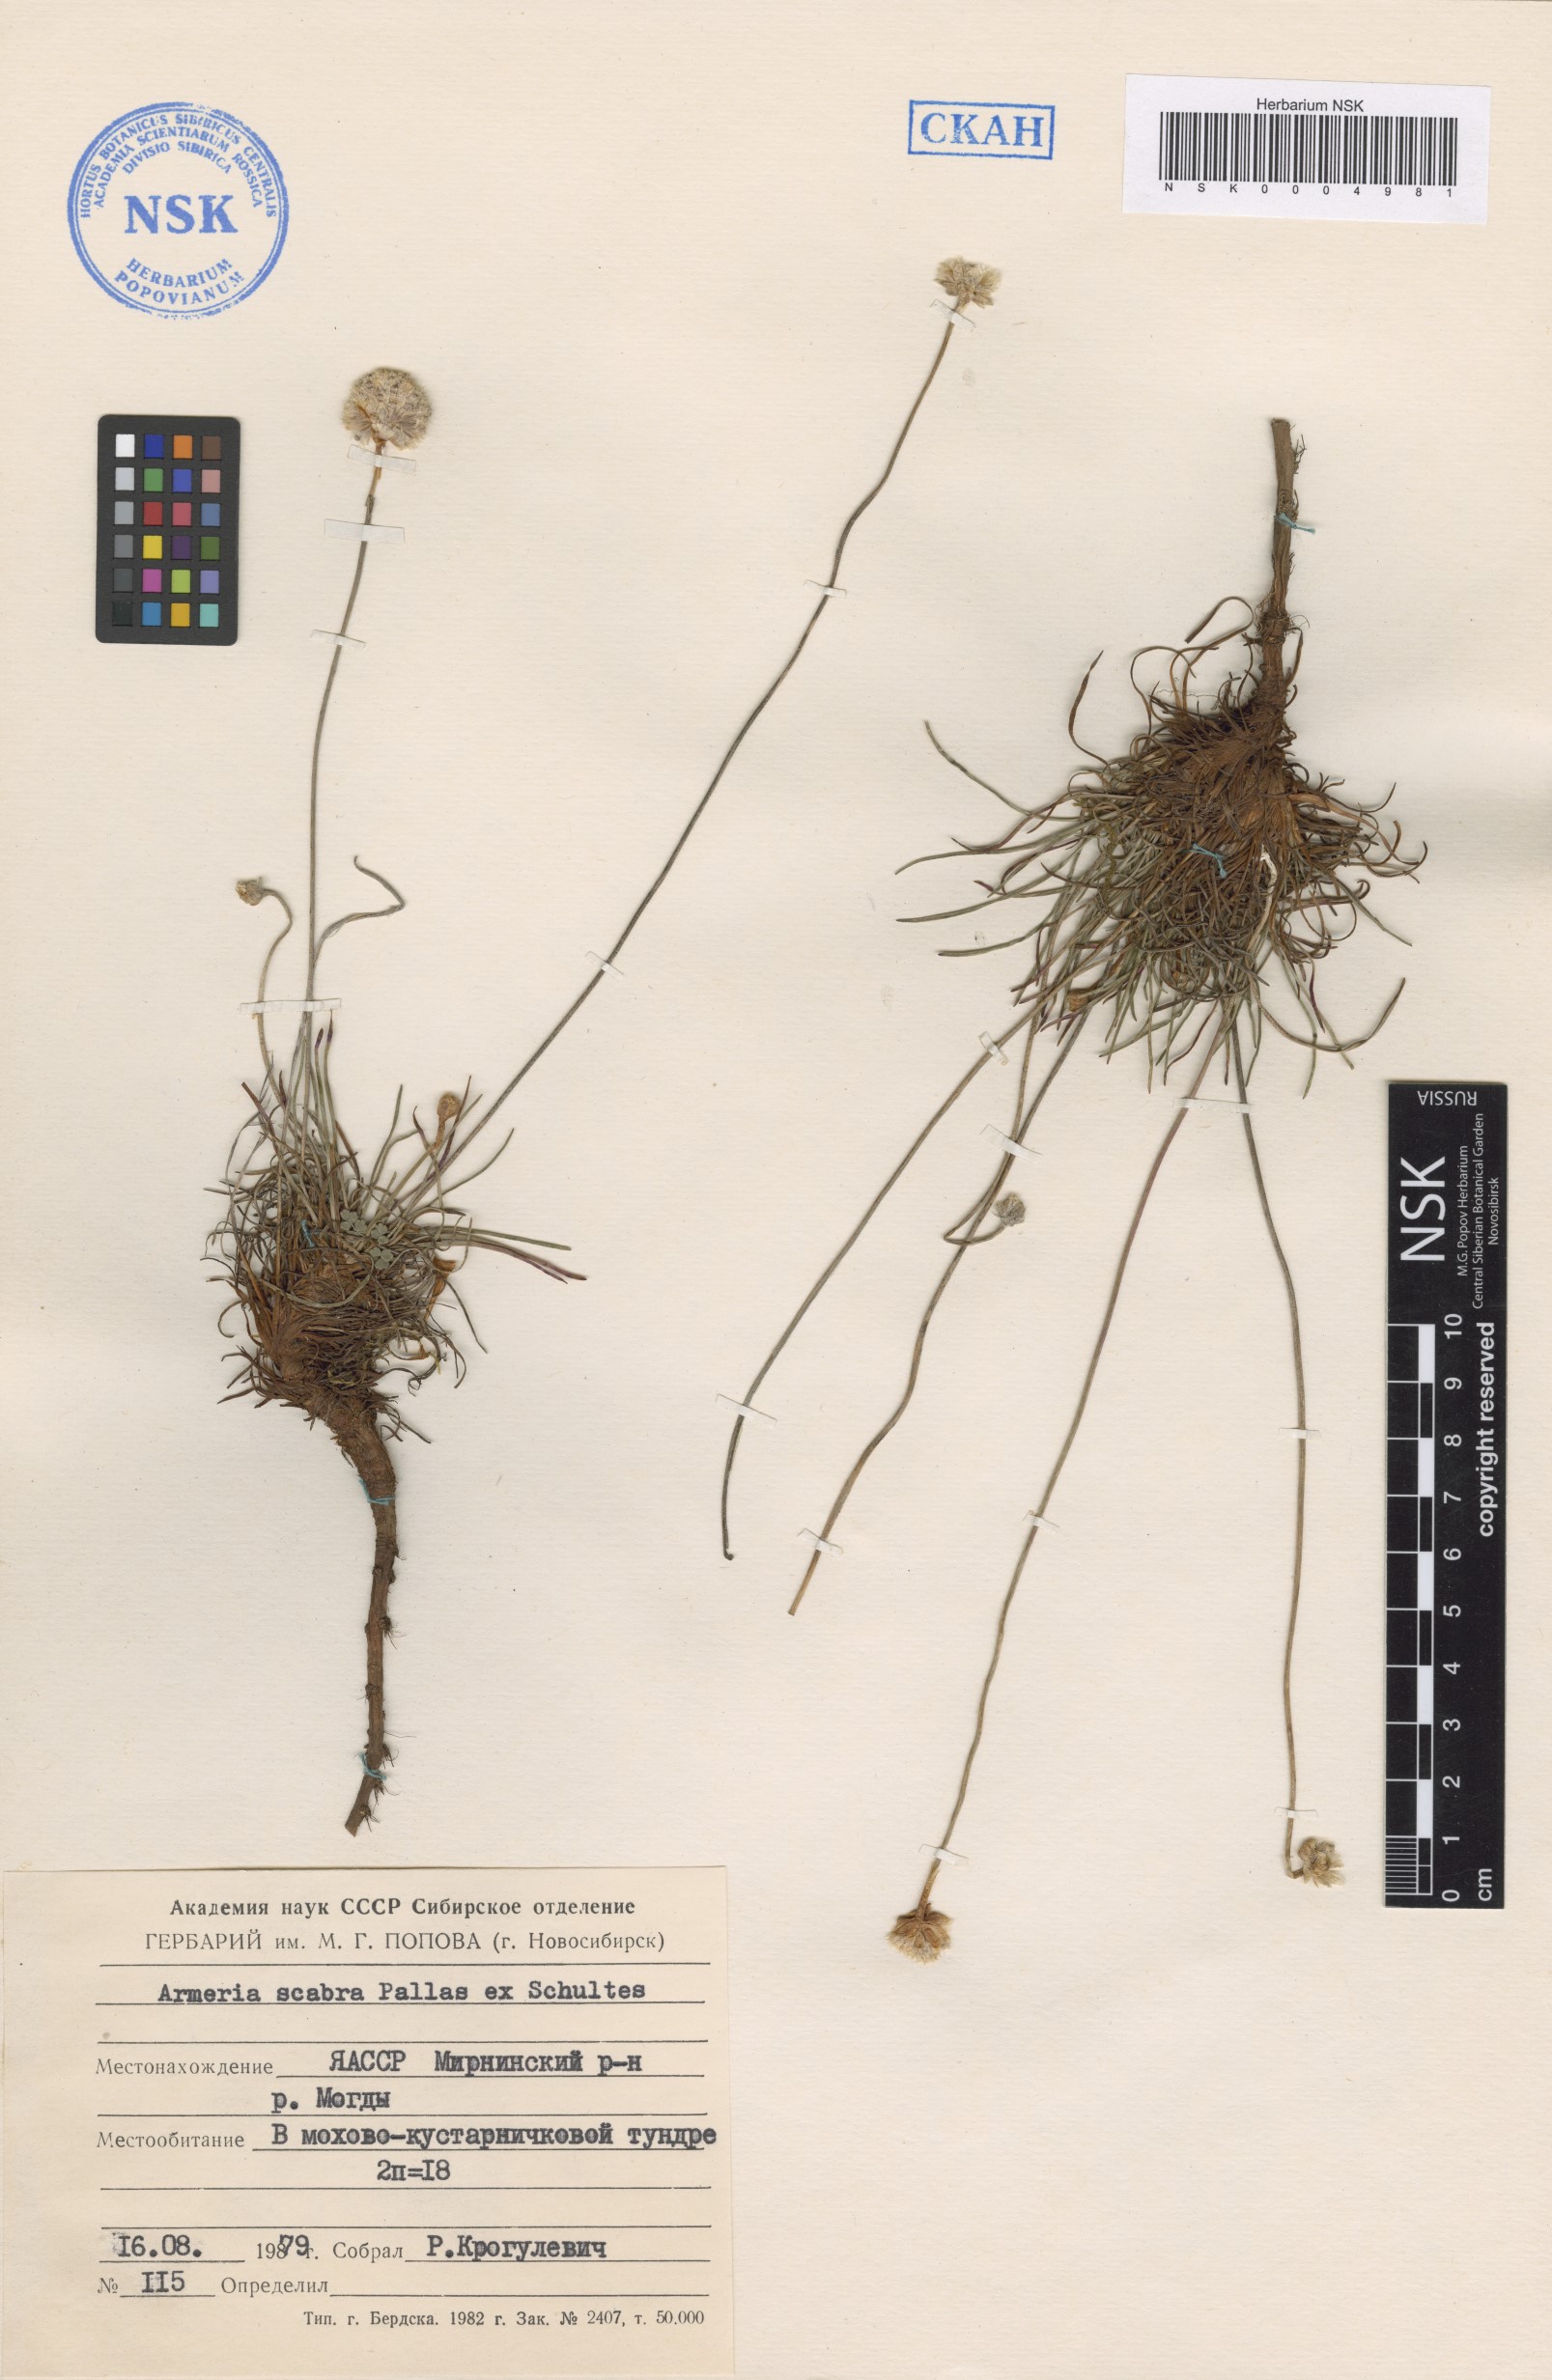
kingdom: Plantae
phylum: Tracheophyta
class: Magnoliopsida
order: Caryophyllales
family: Plumbaginaceae
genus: Armeria
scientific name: Armeria maritima
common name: Thrift
